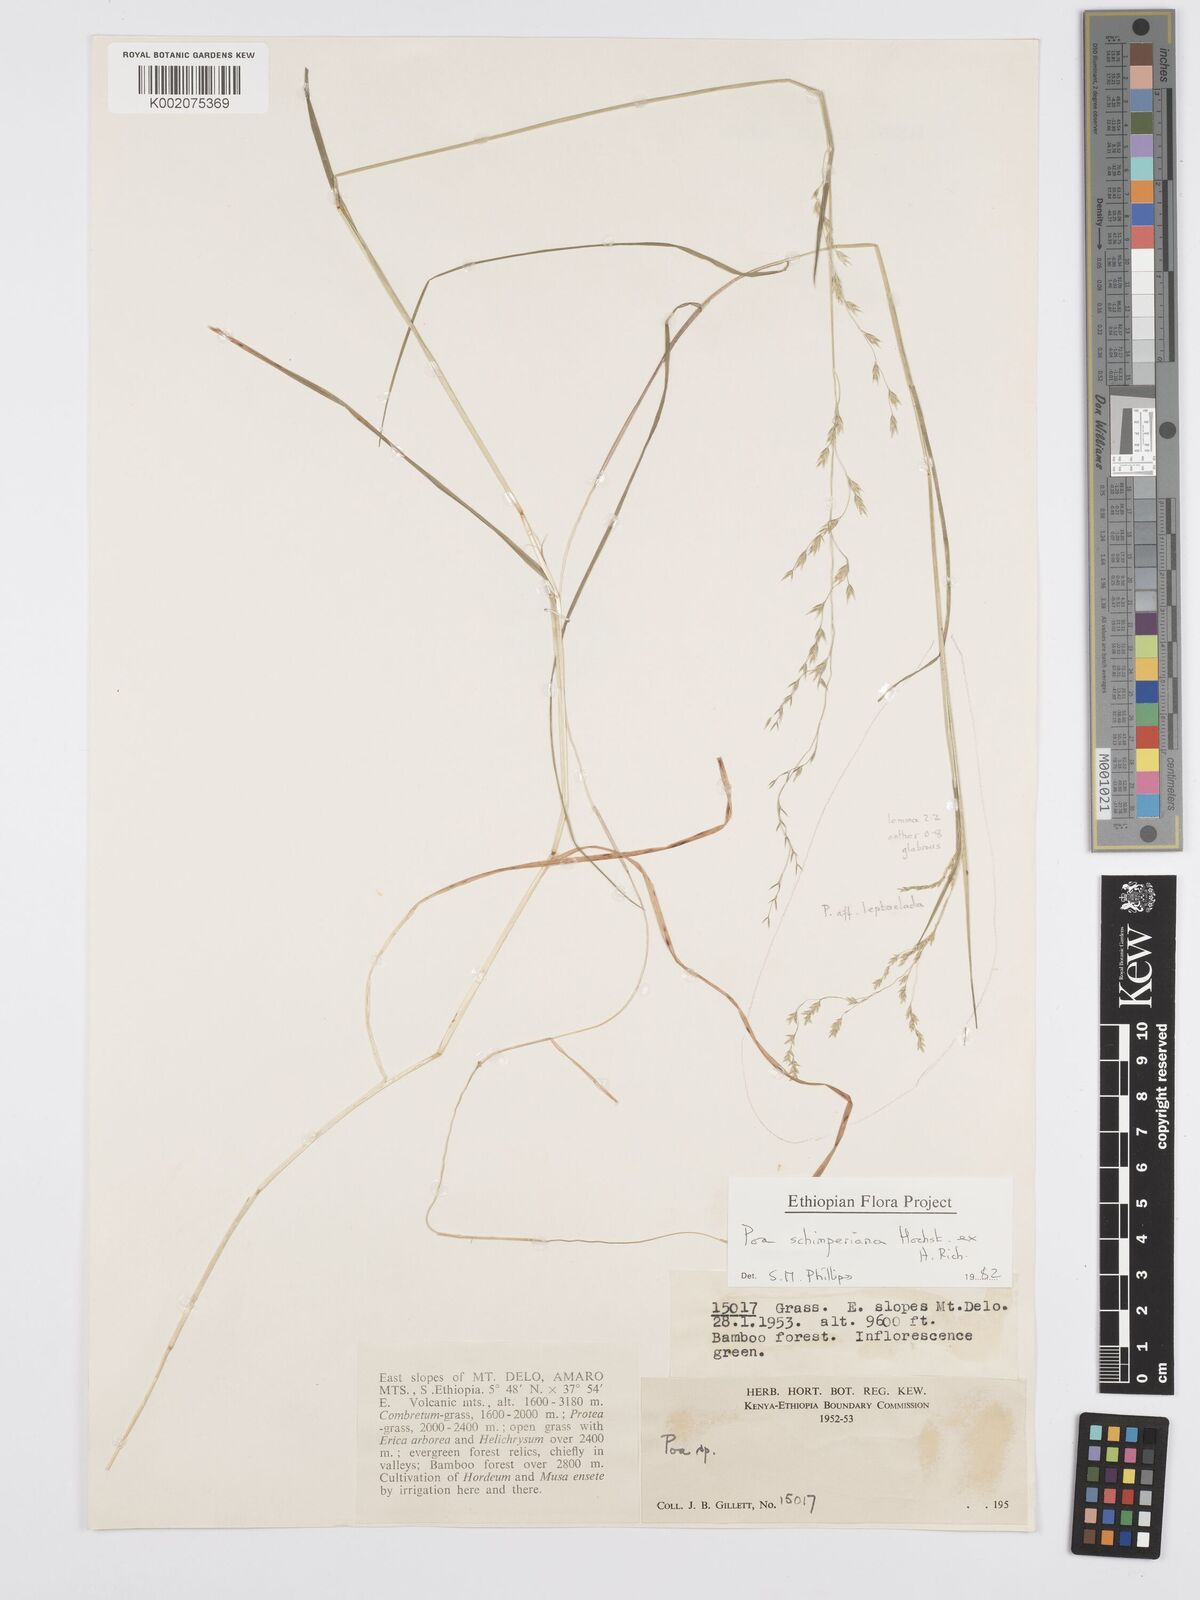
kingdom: Plantae
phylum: Tracheophyta
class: Liliopsida
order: Poales
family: Poaceae
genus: Poa
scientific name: Poa schimperiana
